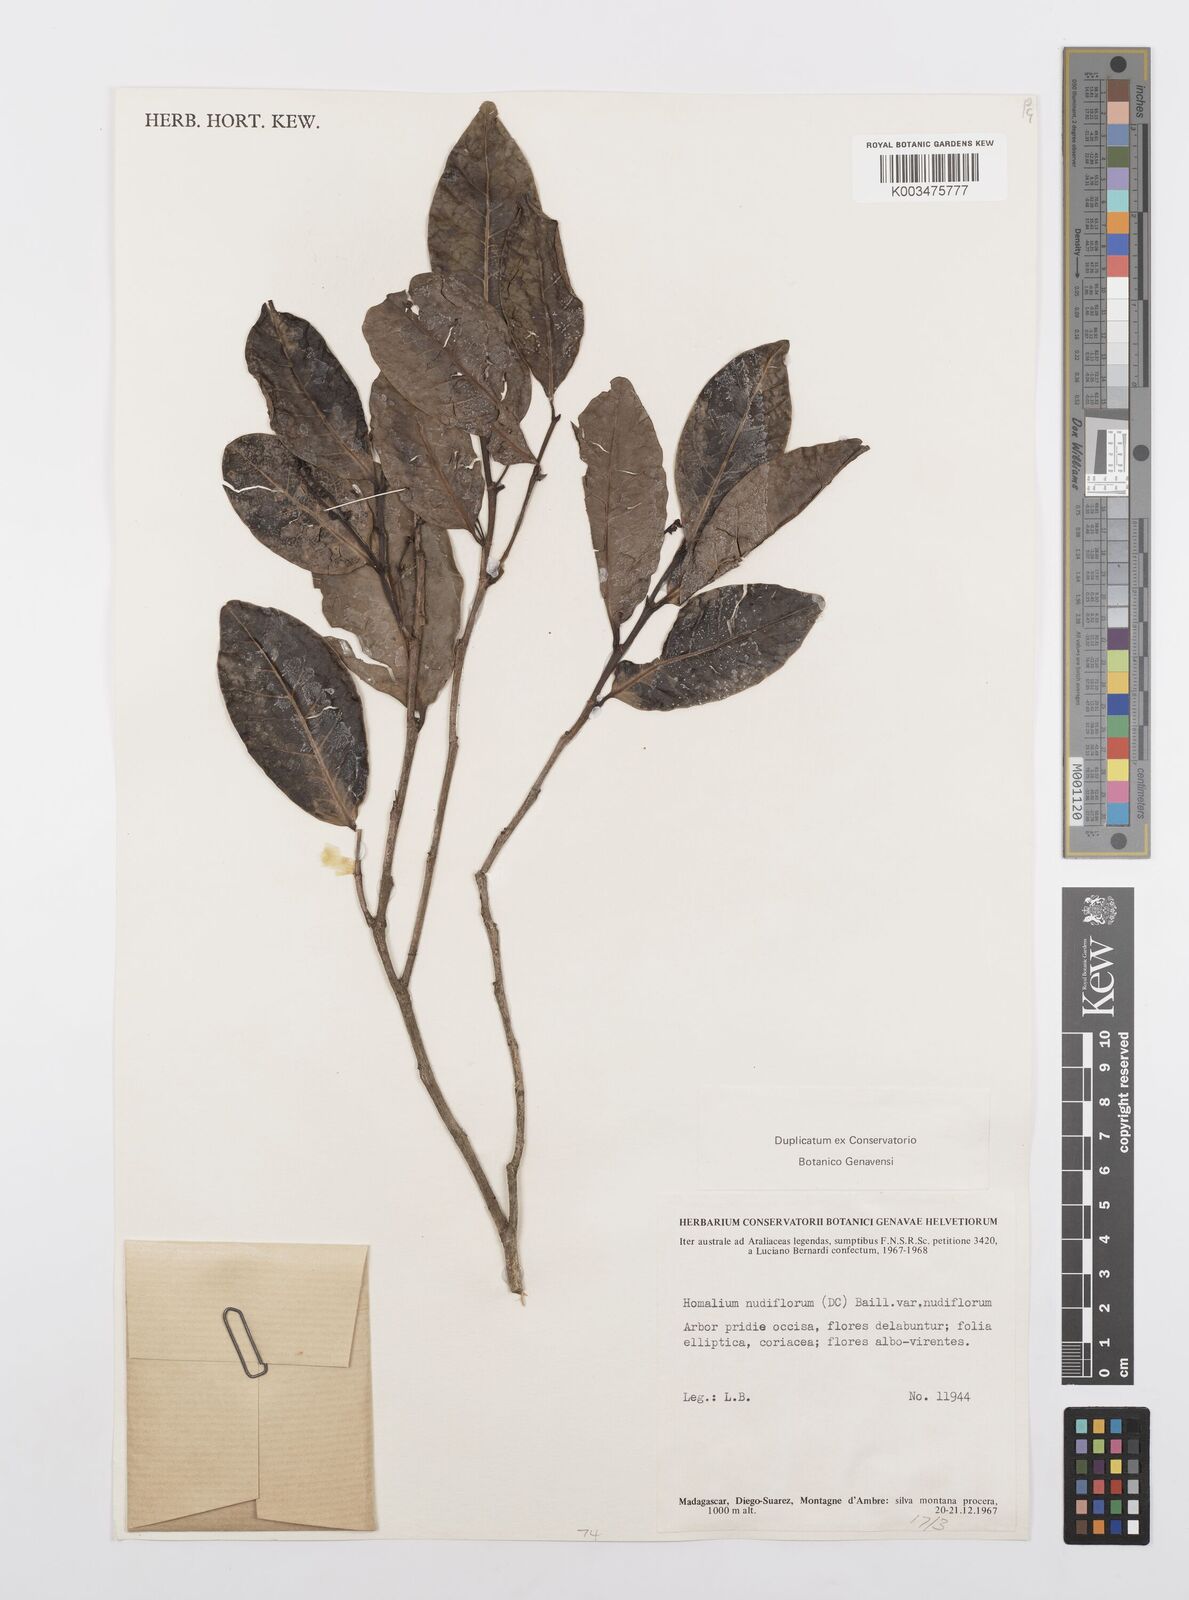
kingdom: Plantae
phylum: Tracheophyta
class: Magnoliopsida
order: Malpighiales
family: Salicaceae
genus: Homalium
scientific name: Homalium nudiflorum
